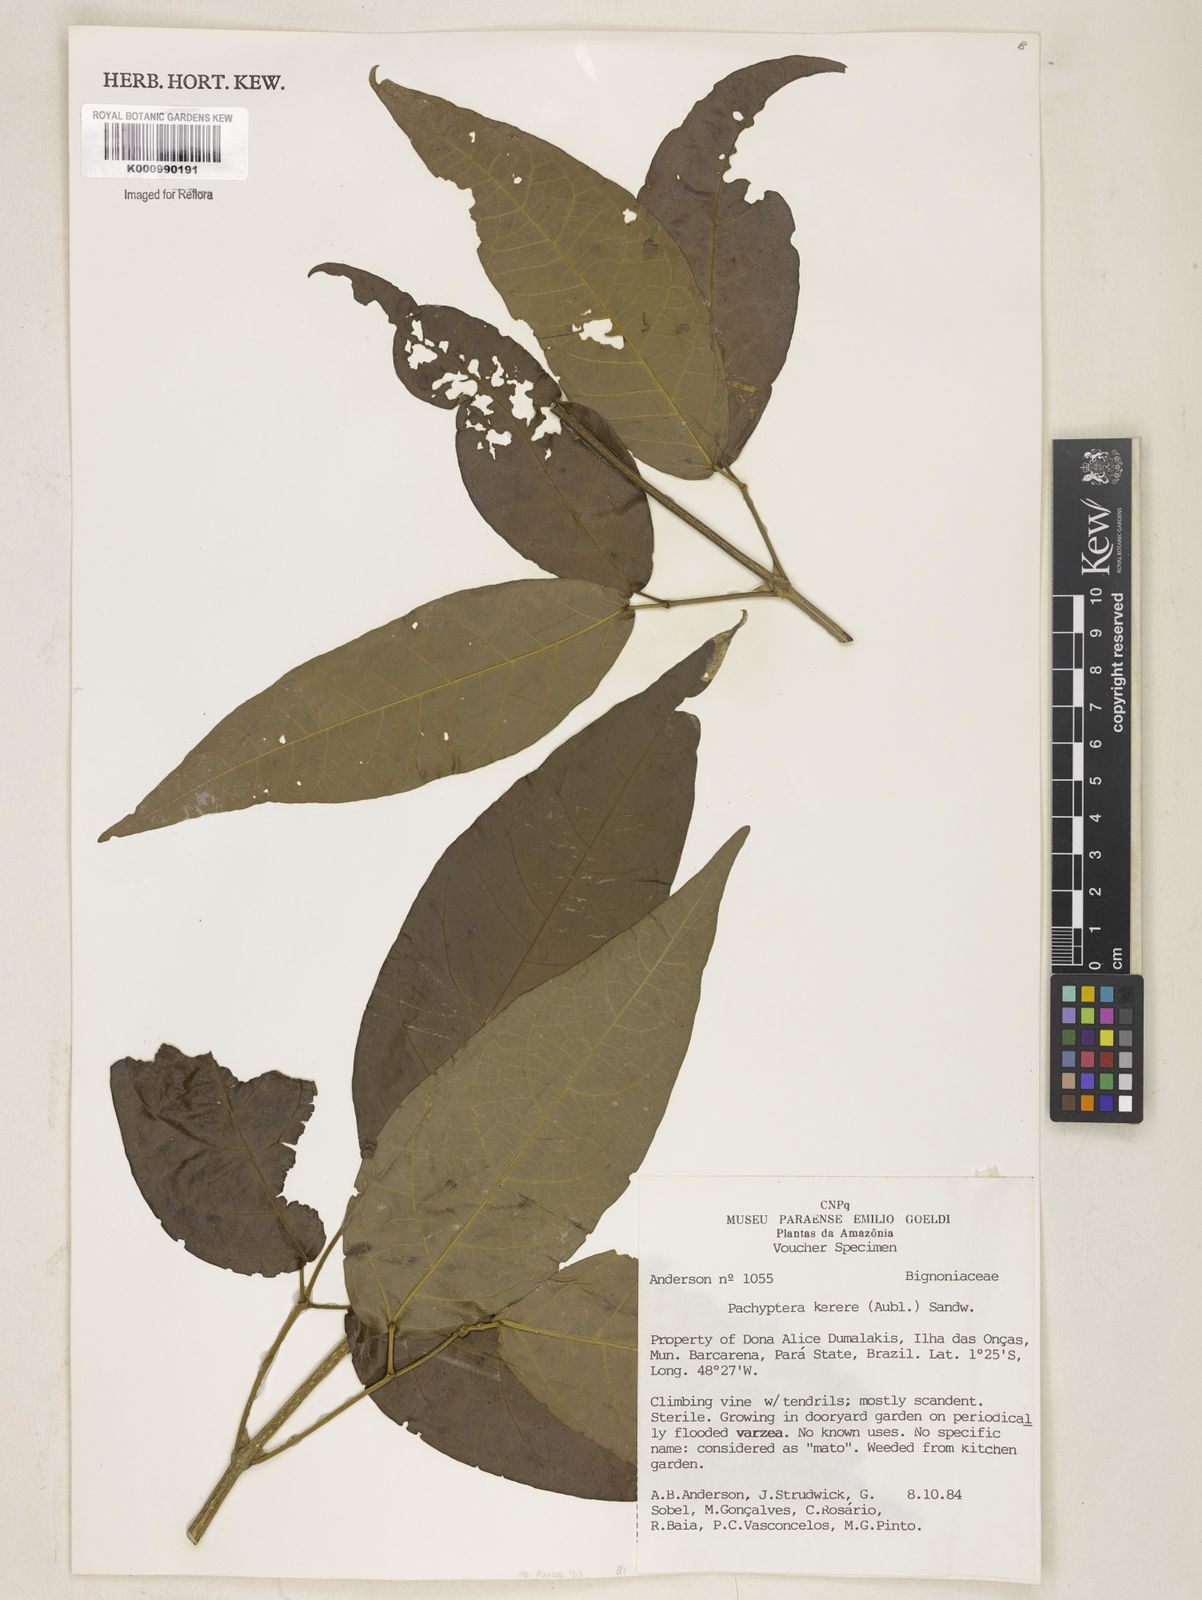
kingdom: Plantae
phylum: Tracheophyta
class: Magnoliopsida
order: Lamiales
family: Bignoniaceae
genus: Pachyptera
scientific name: Pachyptera
